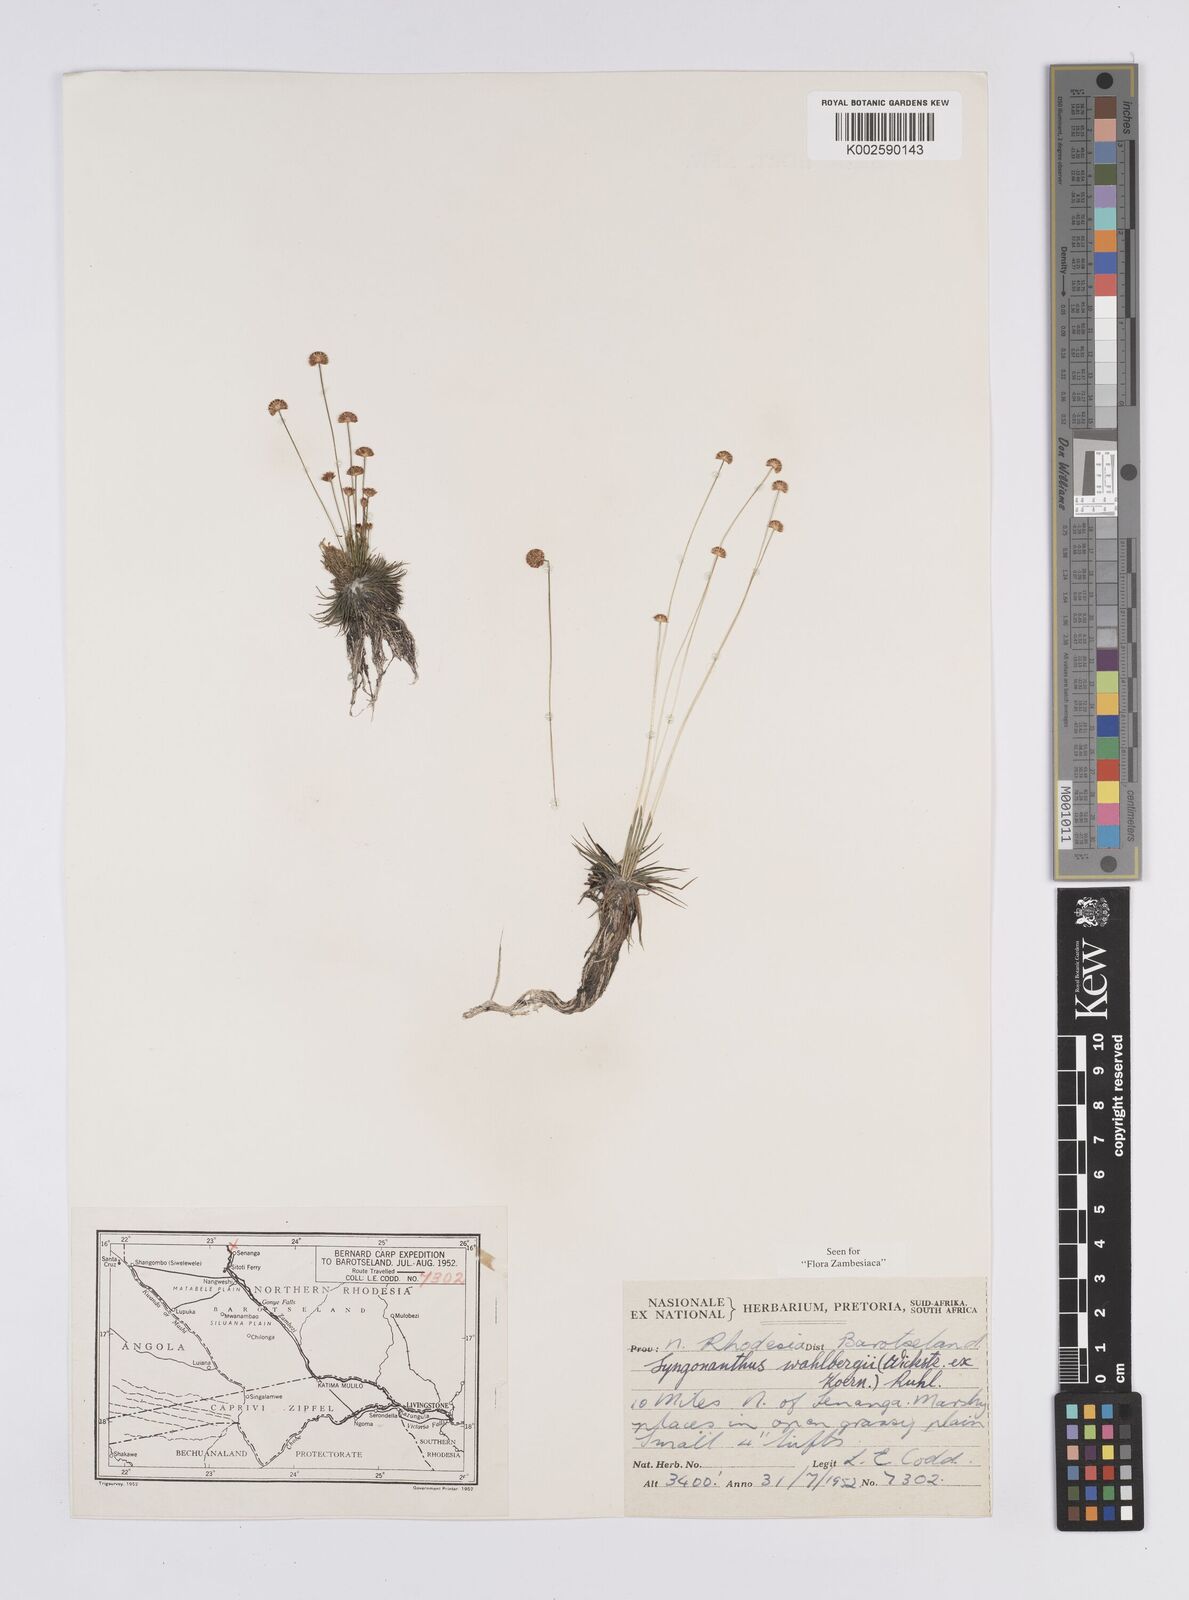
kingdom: Plantae
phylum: Tracheophyta
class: Liliopsida
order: Poales
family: Eriocaulaceae
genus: Syngonanthus
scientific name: Syngonanthus wahlbergii
